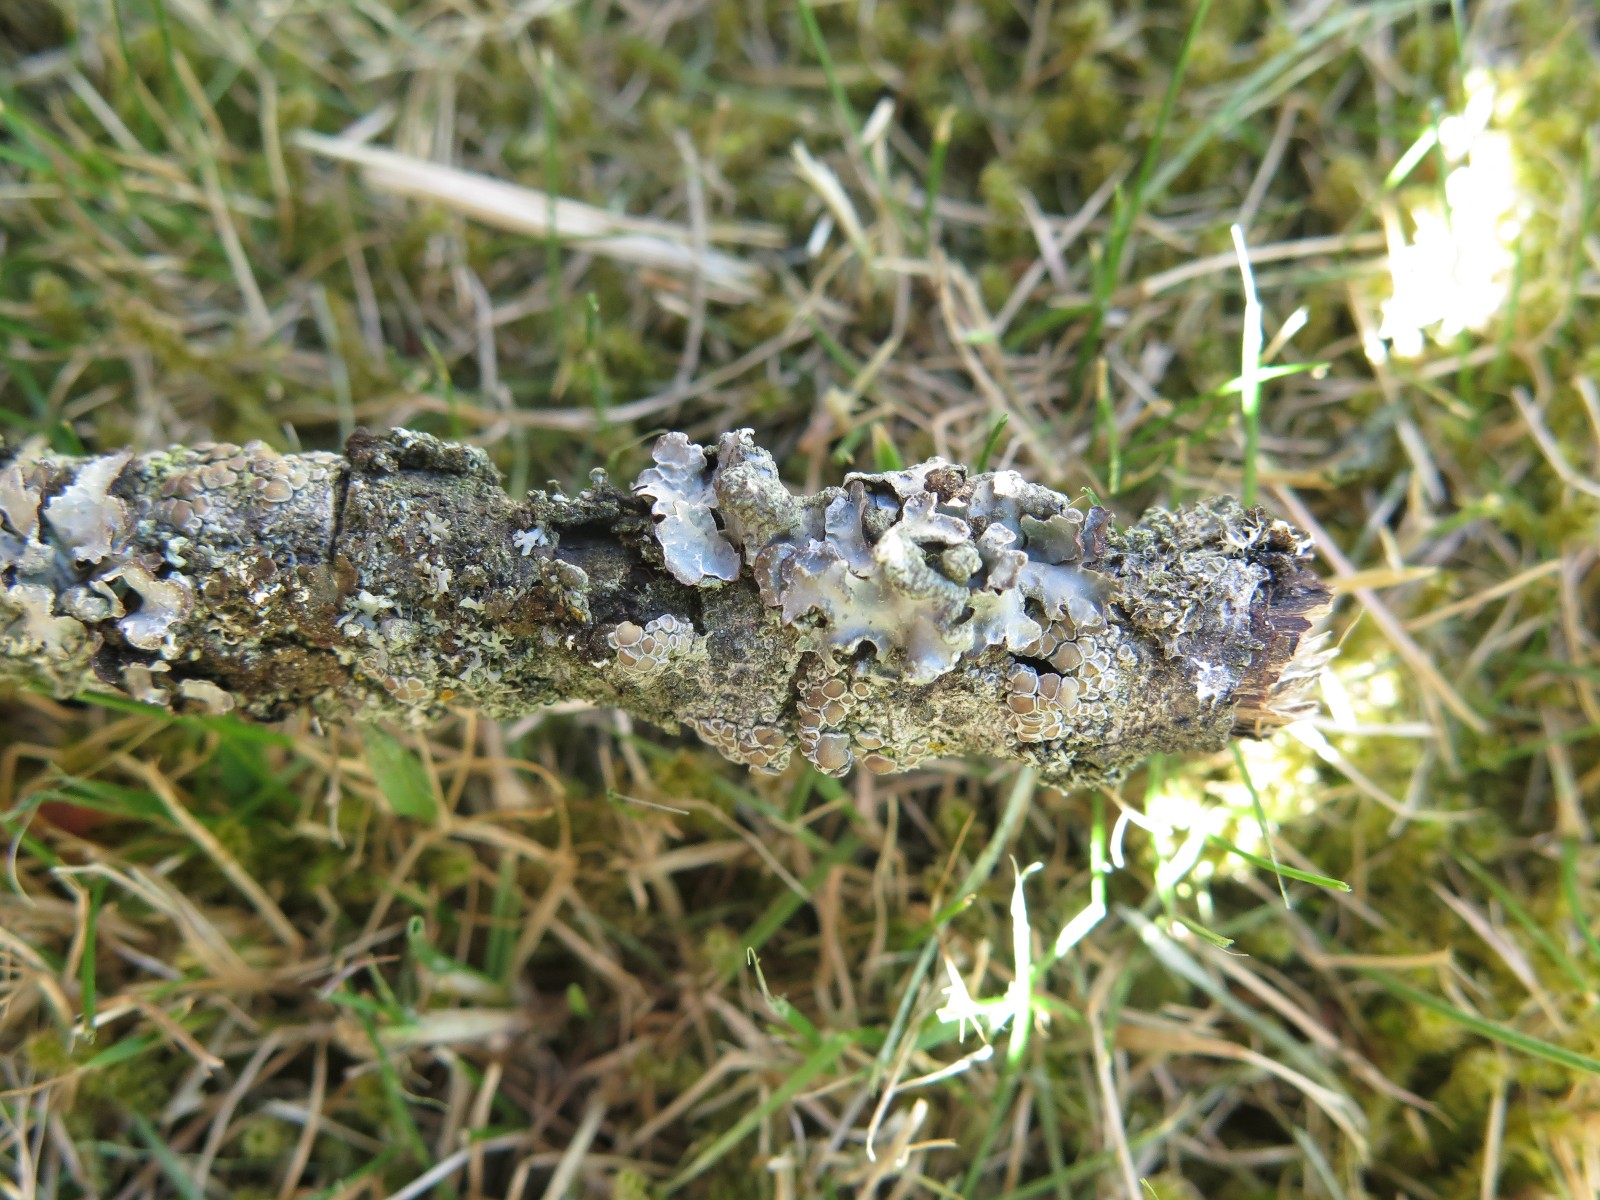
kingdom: Fungi
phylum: Ascomycota
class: Lecanoromycetes
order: Lecanorales
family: Parmeliaceae
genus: Parmelia
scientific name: Parmelia sulcata
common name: rynket skållav
